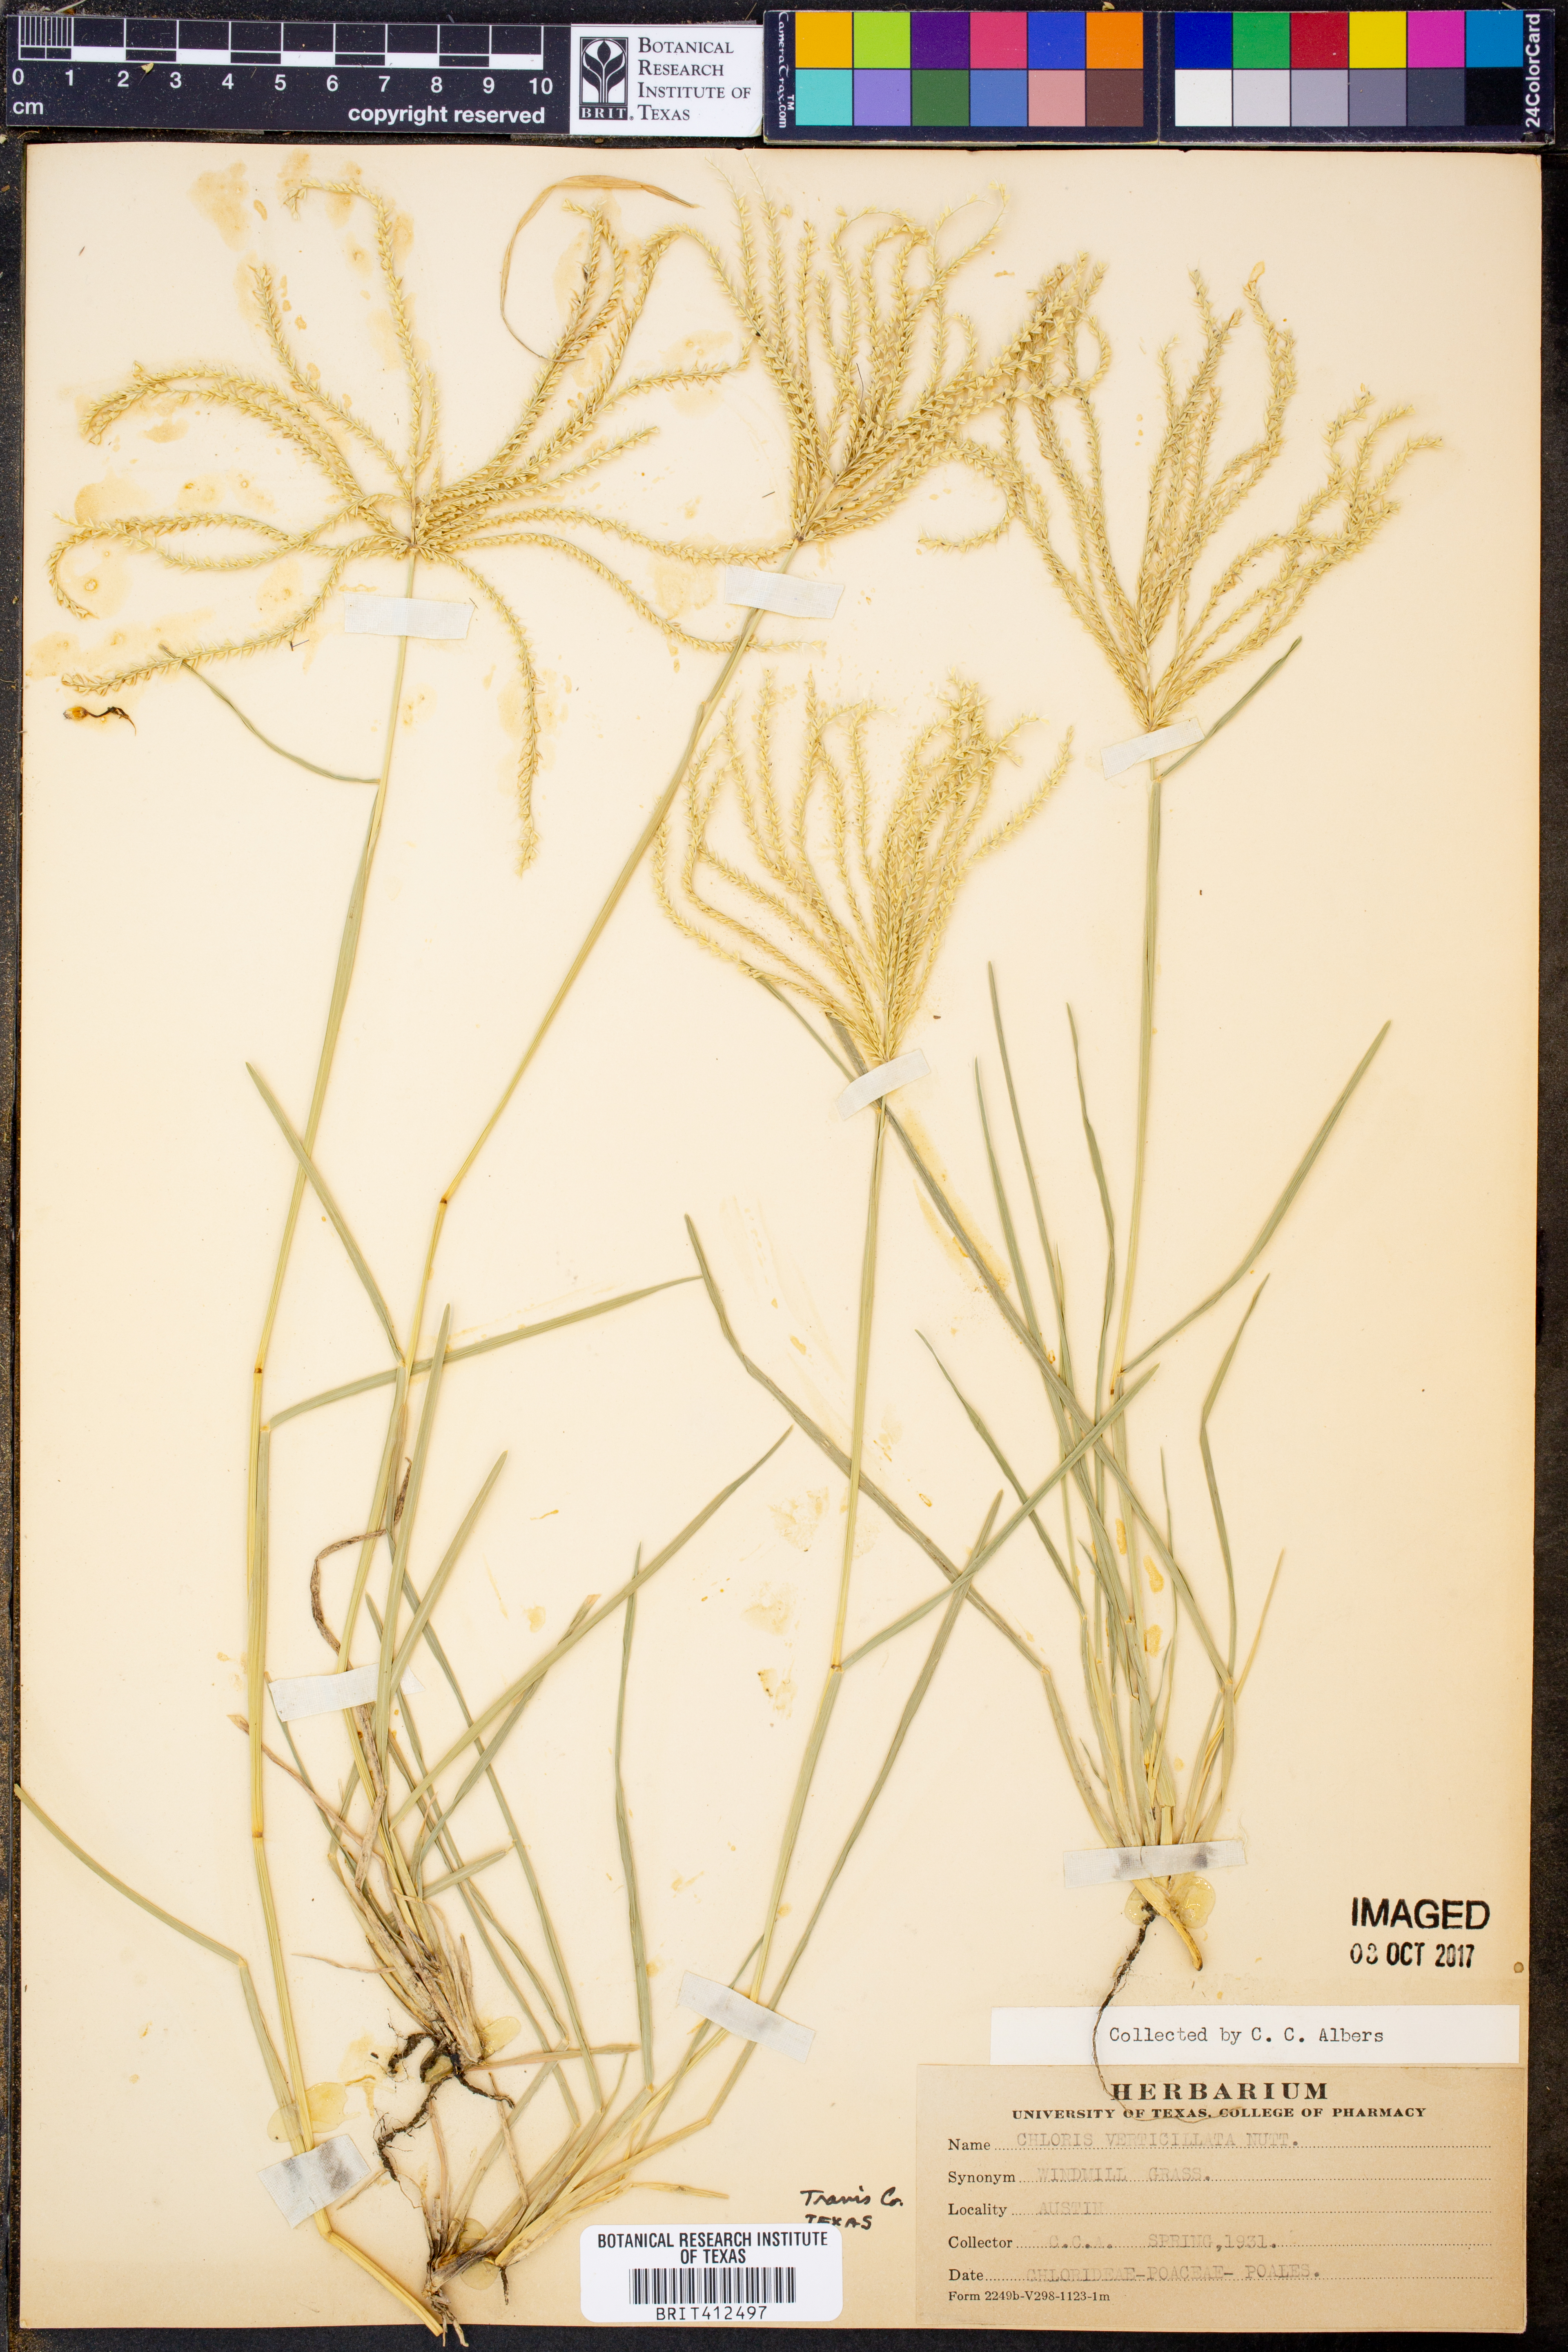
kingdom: Plantae
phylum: Tracheophyta
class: Liliopsida
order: Poales
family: Poaceae
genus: Chloris
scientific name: Chloris verticillata
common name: Tumble windmill grass
